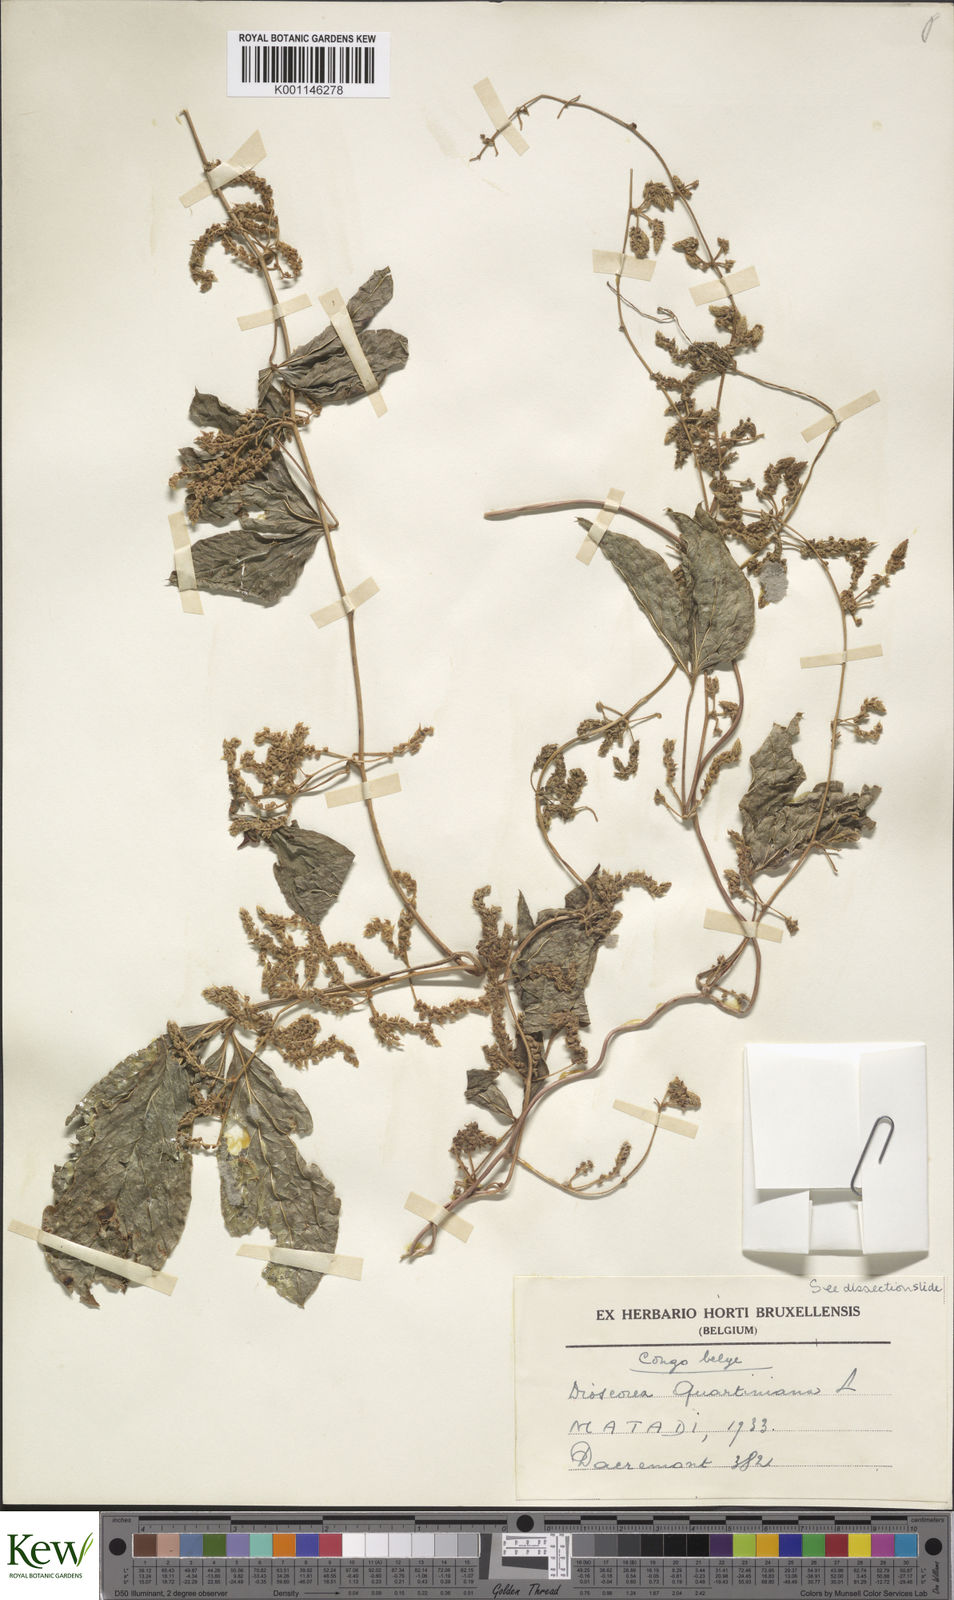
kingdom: Plantae
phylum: Tracheophyta
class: Liliopsida
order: Dioscoreales
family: Dioscoreaceae
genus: Dioscorea
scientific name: Dioscorea quartiniana
